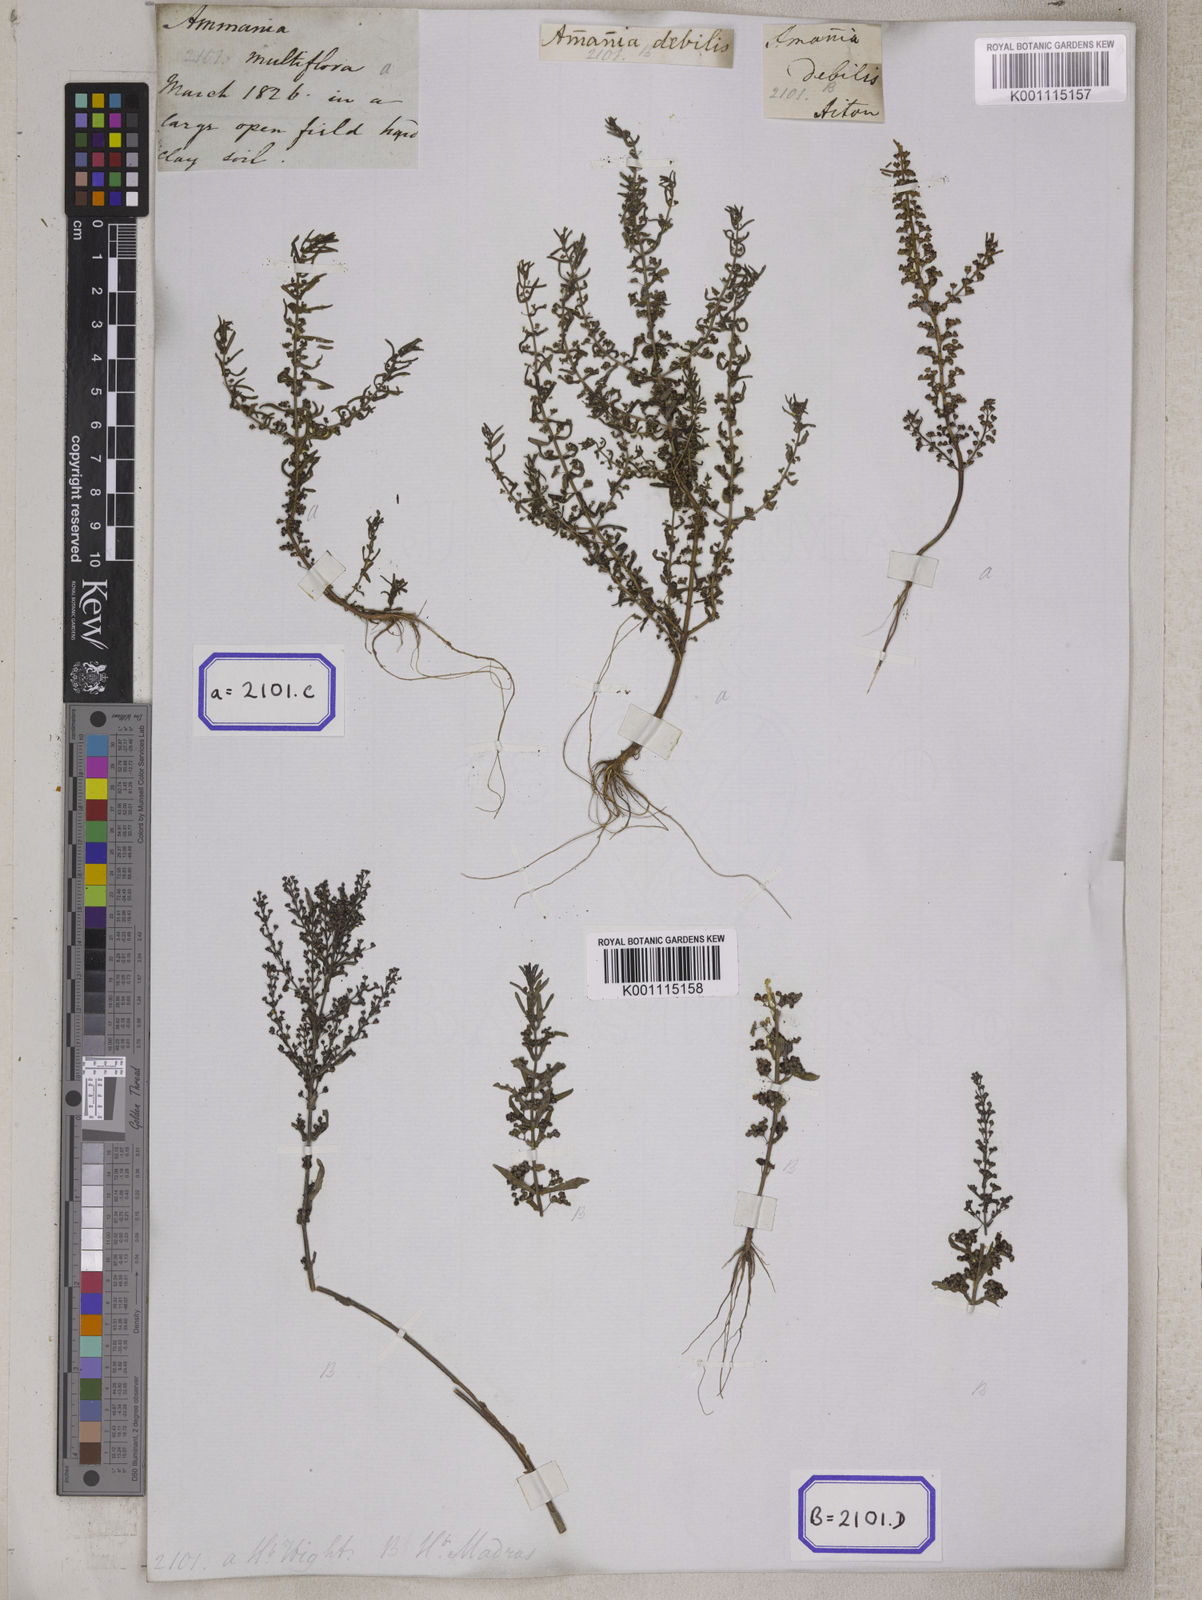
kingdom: Plantae
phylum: Tracheophyta
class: Magnoliopsida
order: Myrtales
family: Lythraceae
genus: Ammannia
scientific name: Ammannia auriculata
